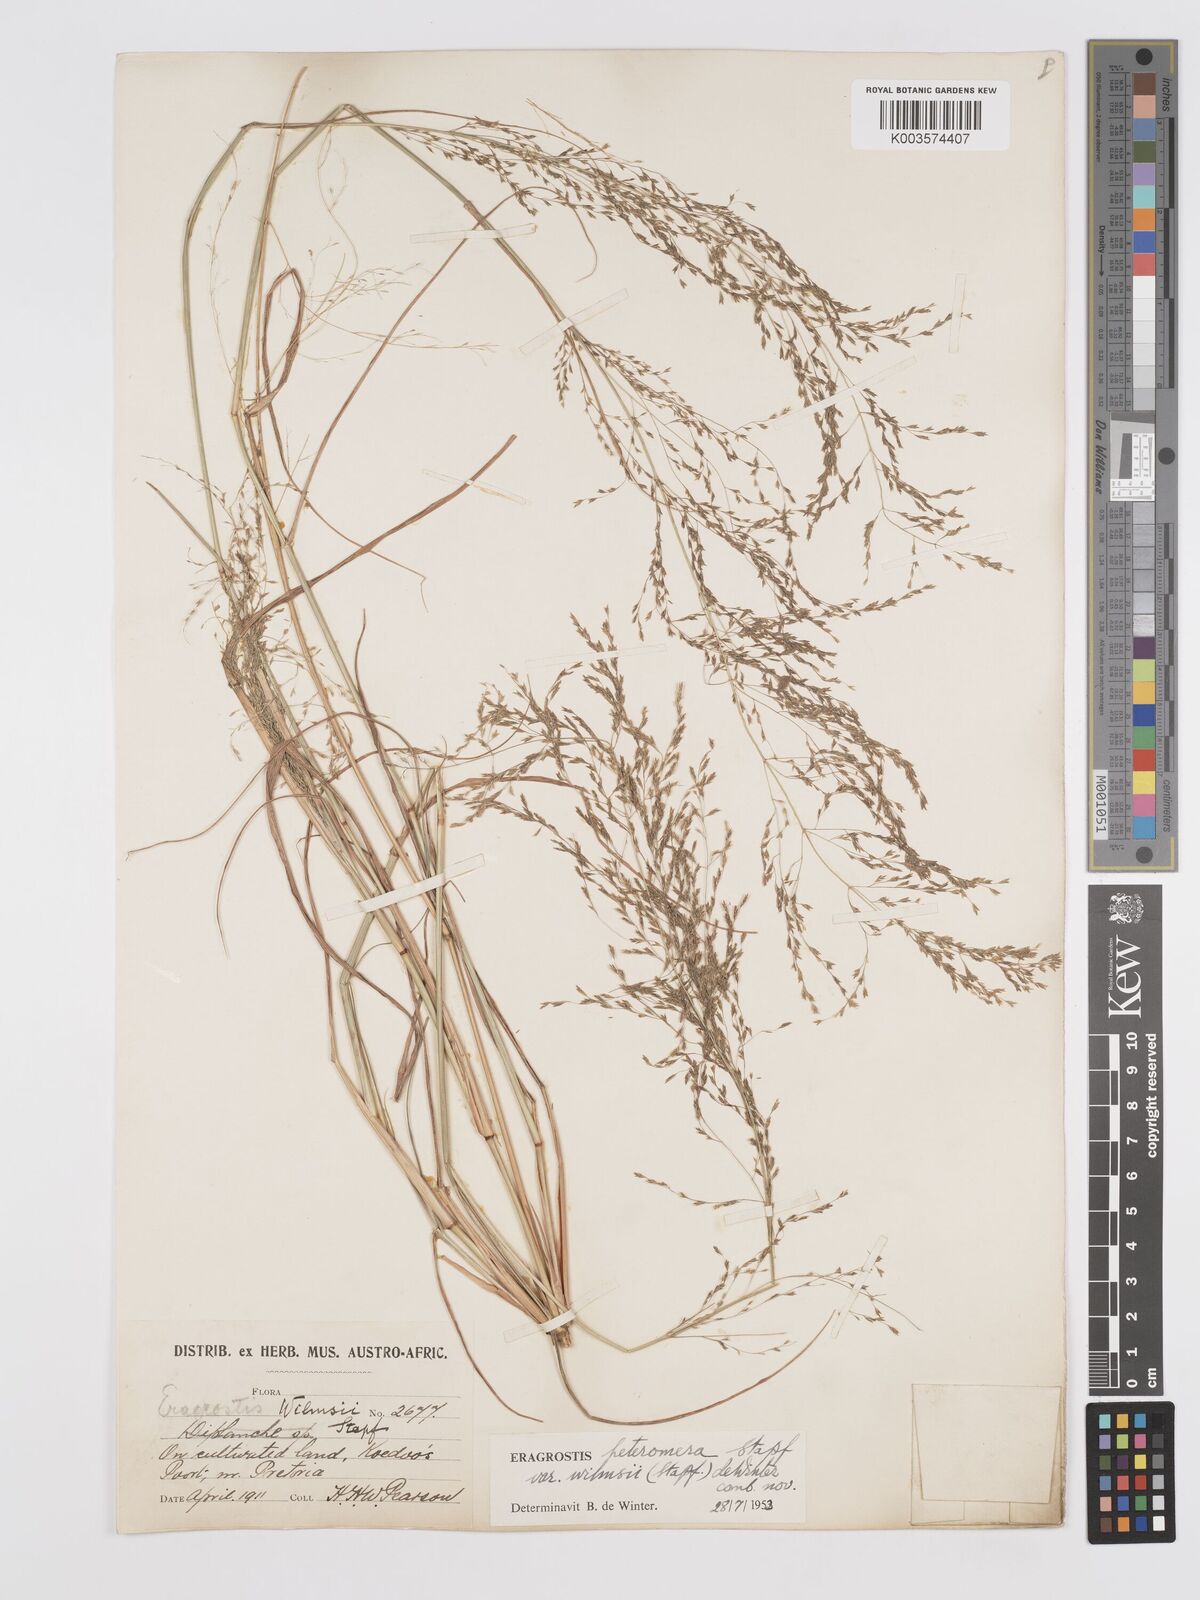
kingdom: Plantae
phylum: Tracheophyta
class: Liliopsida
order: Poales
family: Poaceae
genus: Eragrostis
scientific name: Eragrostis heteromera
